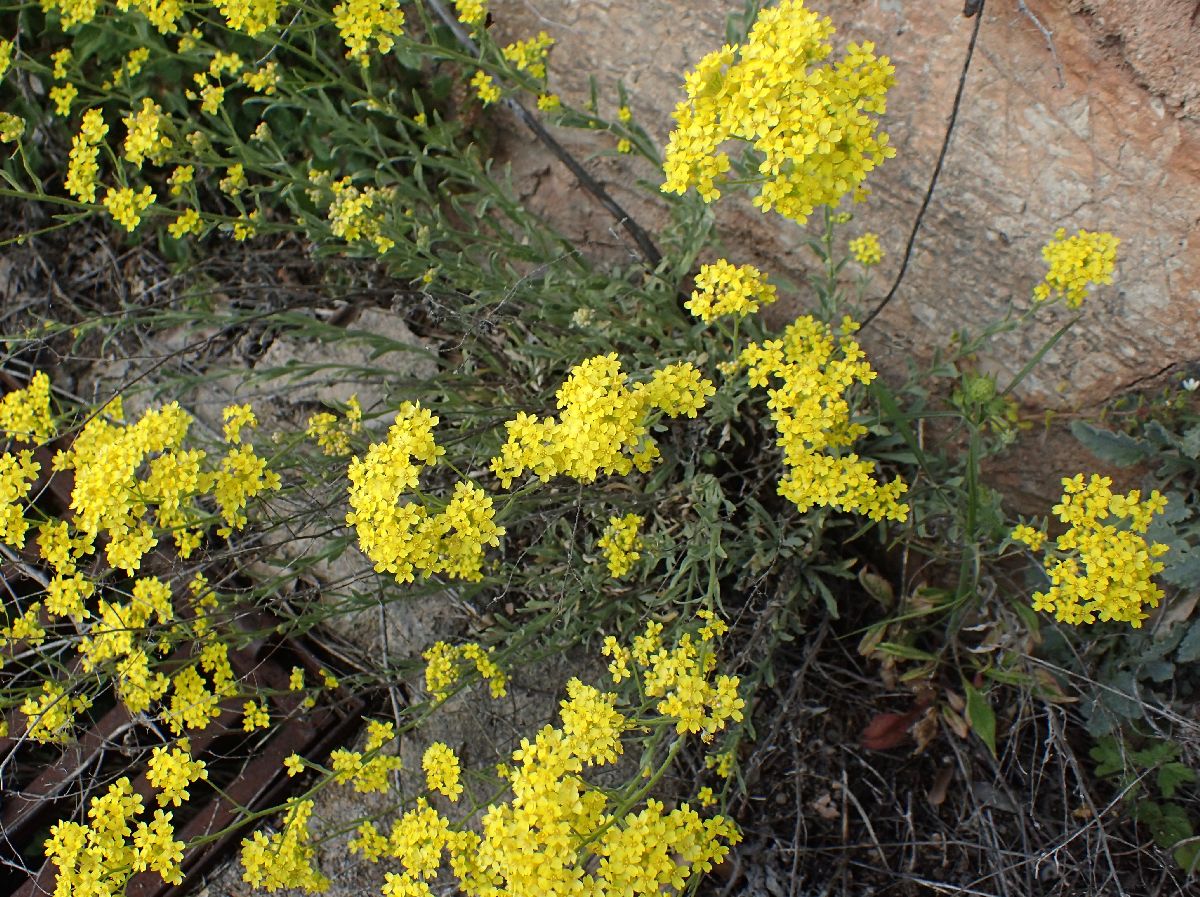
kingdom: Plantae
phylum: Tracheophyta
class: Magnoliopsida
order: Brassicales
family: Brassicaceae
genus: Aurinia
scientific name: Aurinia saxatilis
